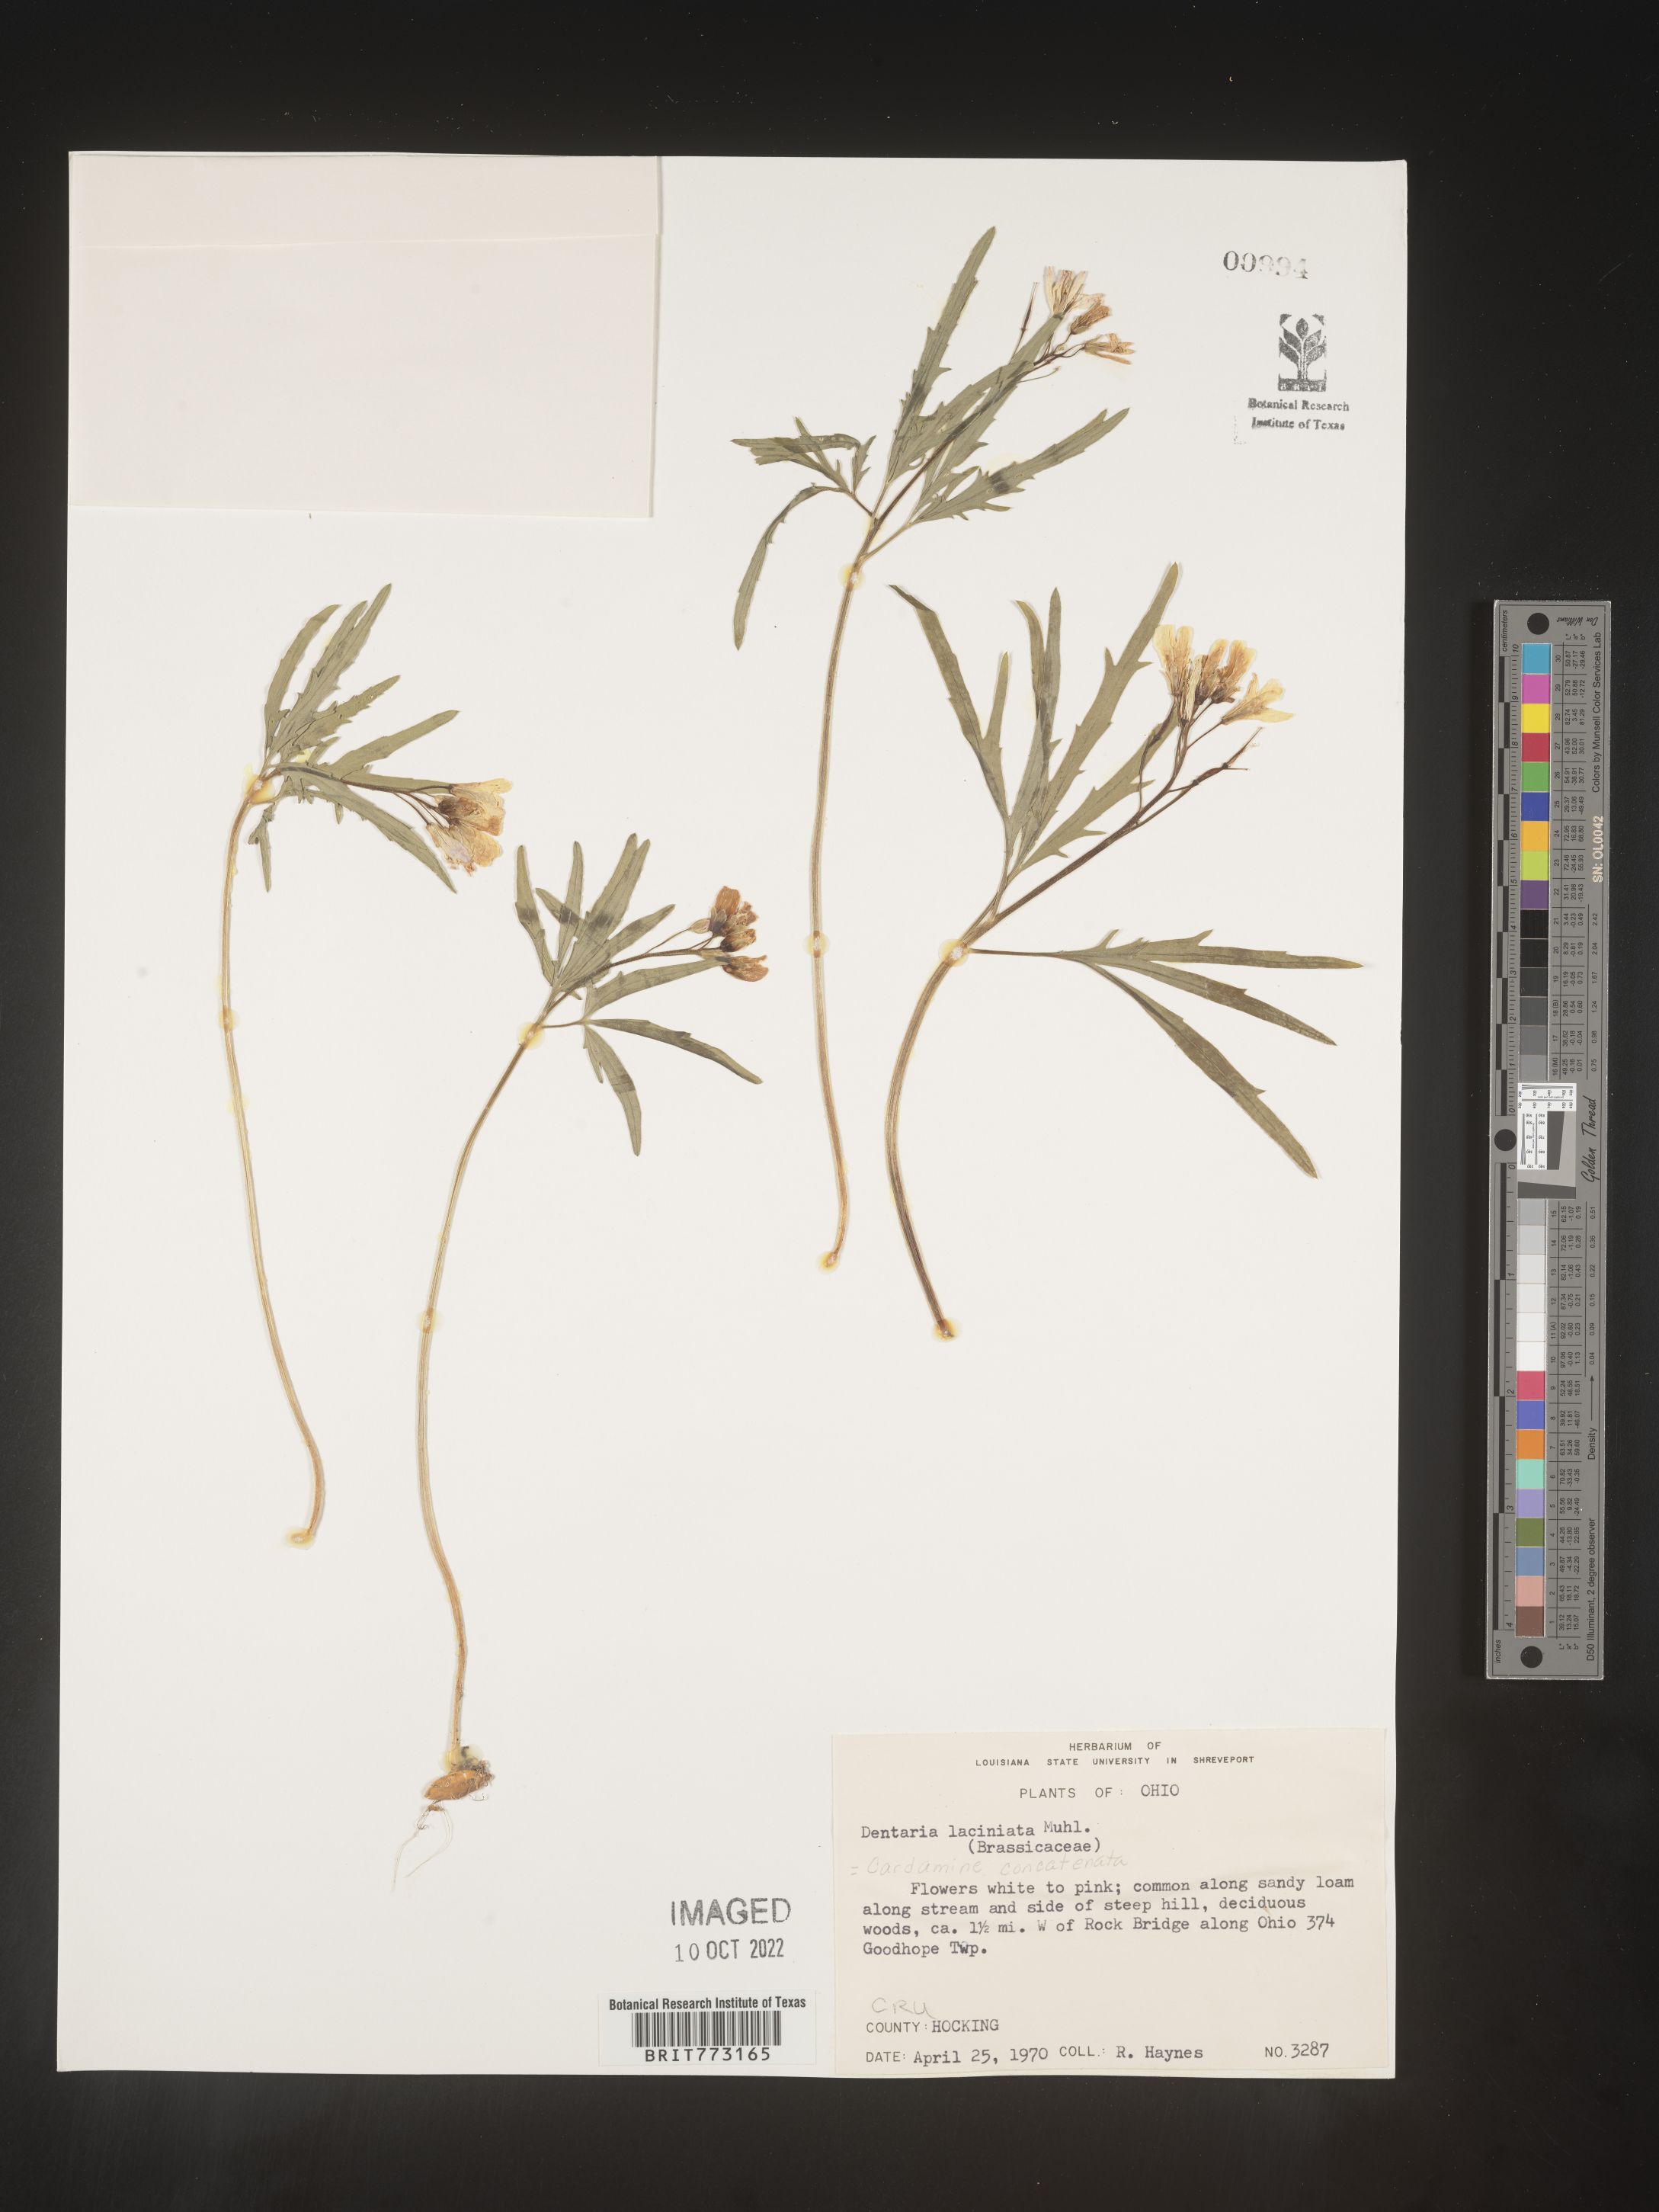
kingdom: Plantae
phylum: Tracheophyta
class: Magnoliopsida
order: Brassicales
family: Brassicaceae
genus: Cardamine
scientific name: Cardamine
